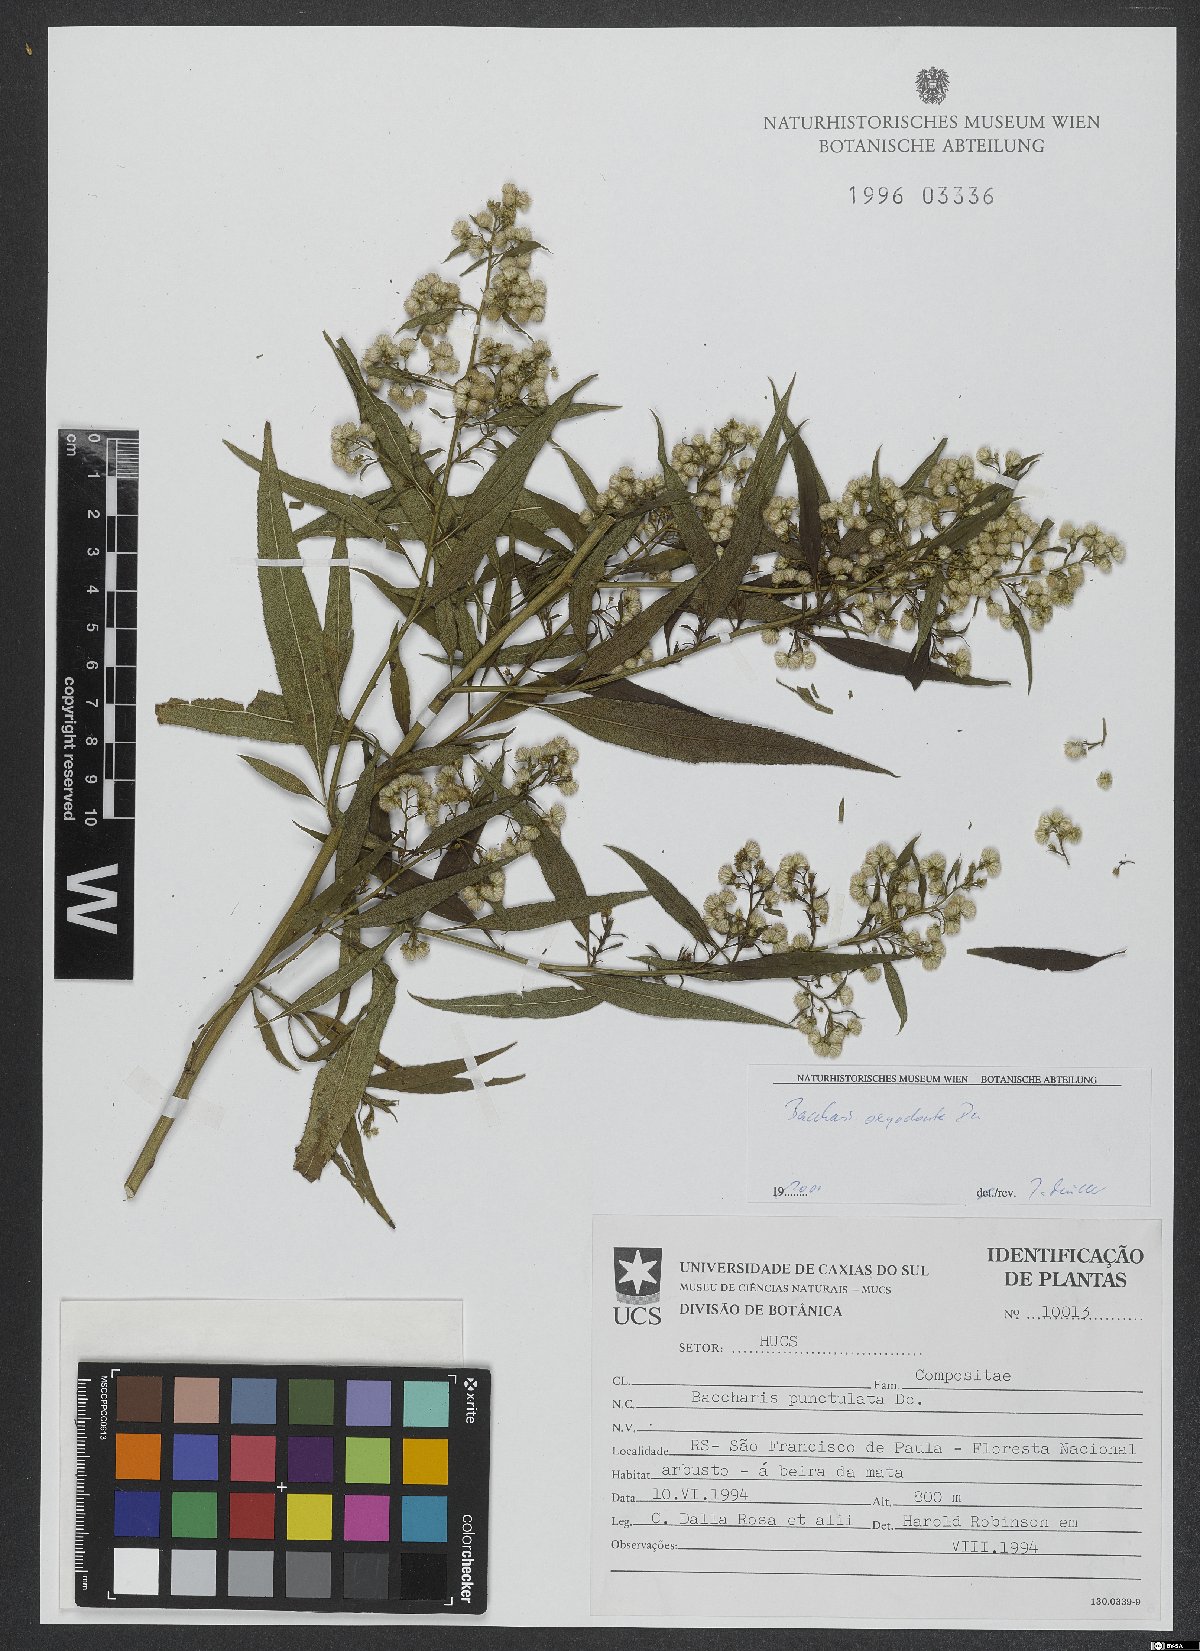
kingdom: Plantae
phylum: Tracheophyta
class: Magnoliopsida
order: Asterales
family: Asteraceae
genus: Baccharis
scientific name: Baccharis oxyodonta
